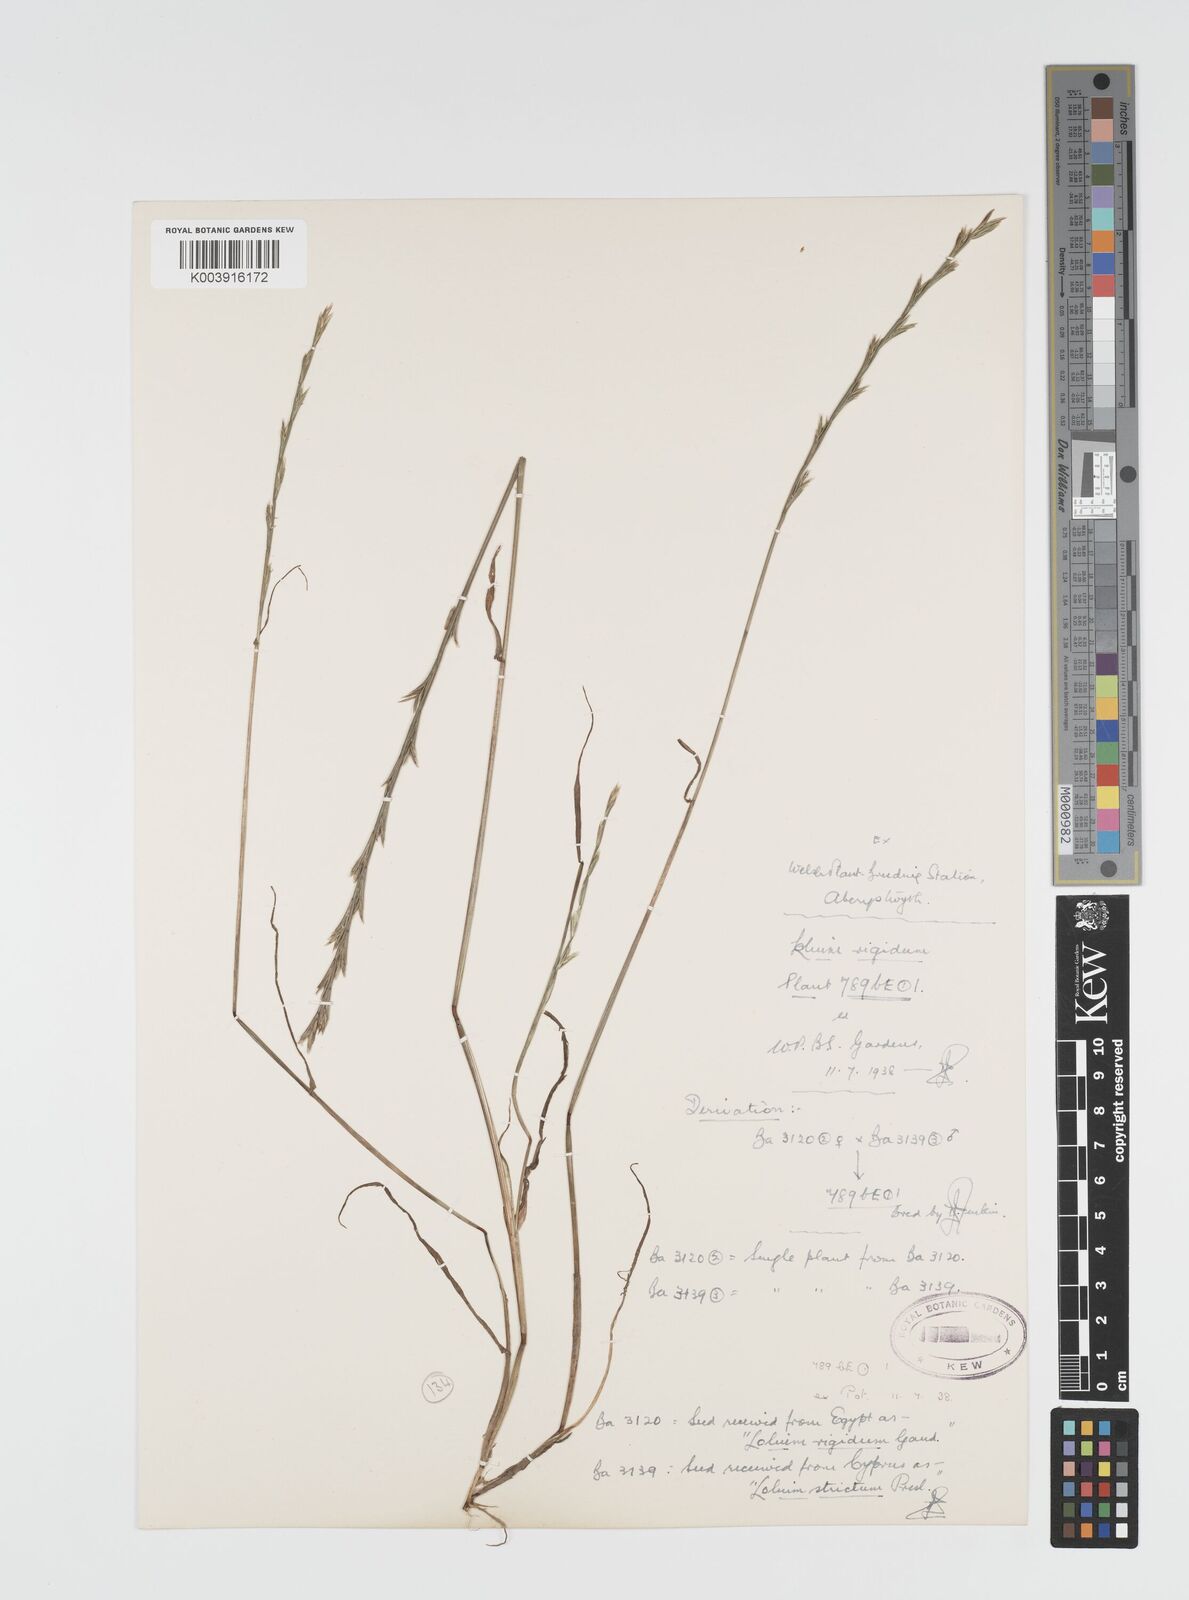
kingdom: Plantae
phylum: Tracheophyta
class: Liliopsida
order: Poales
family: Poaceae
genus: Lolium
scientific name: Lolium rigidum
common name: Wimmera ryegrass
